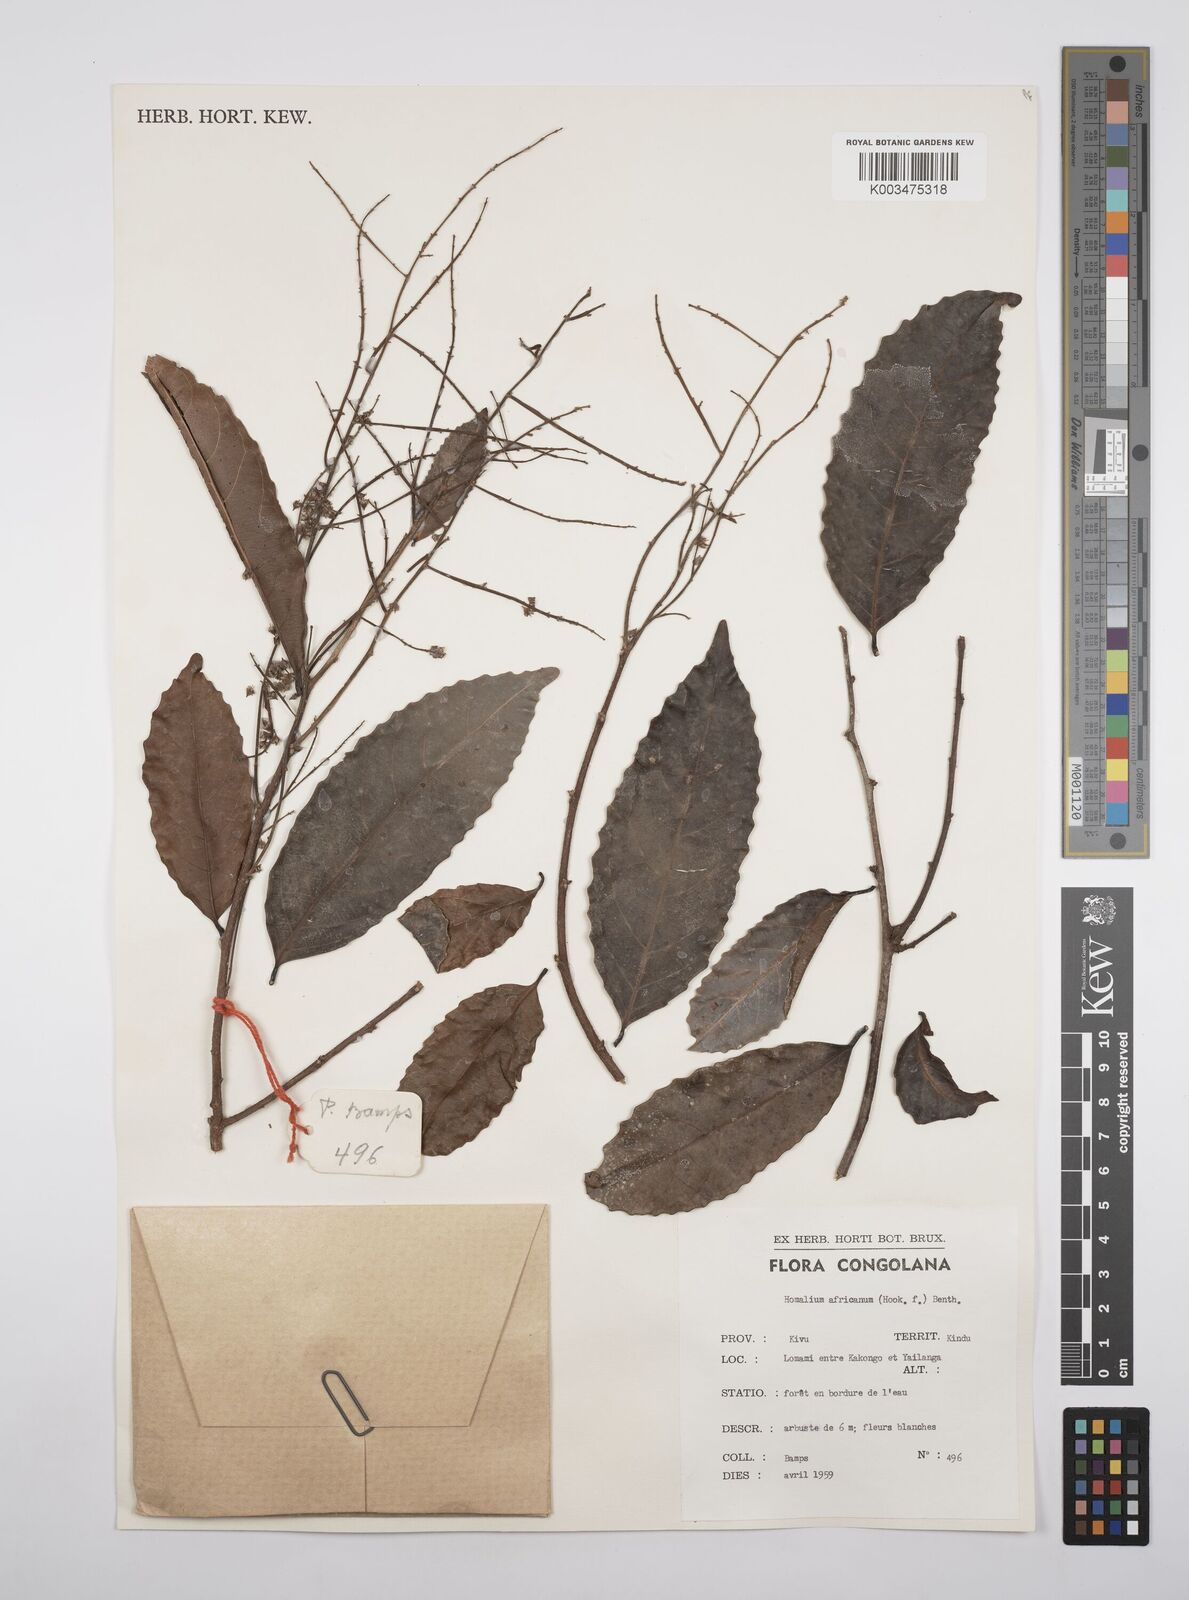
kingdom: Plantae
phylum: Tracheophyta
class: Magnoliopsida
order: Malpighiales
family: Salicaceae
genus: Homalium
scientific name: Homalium africanum
